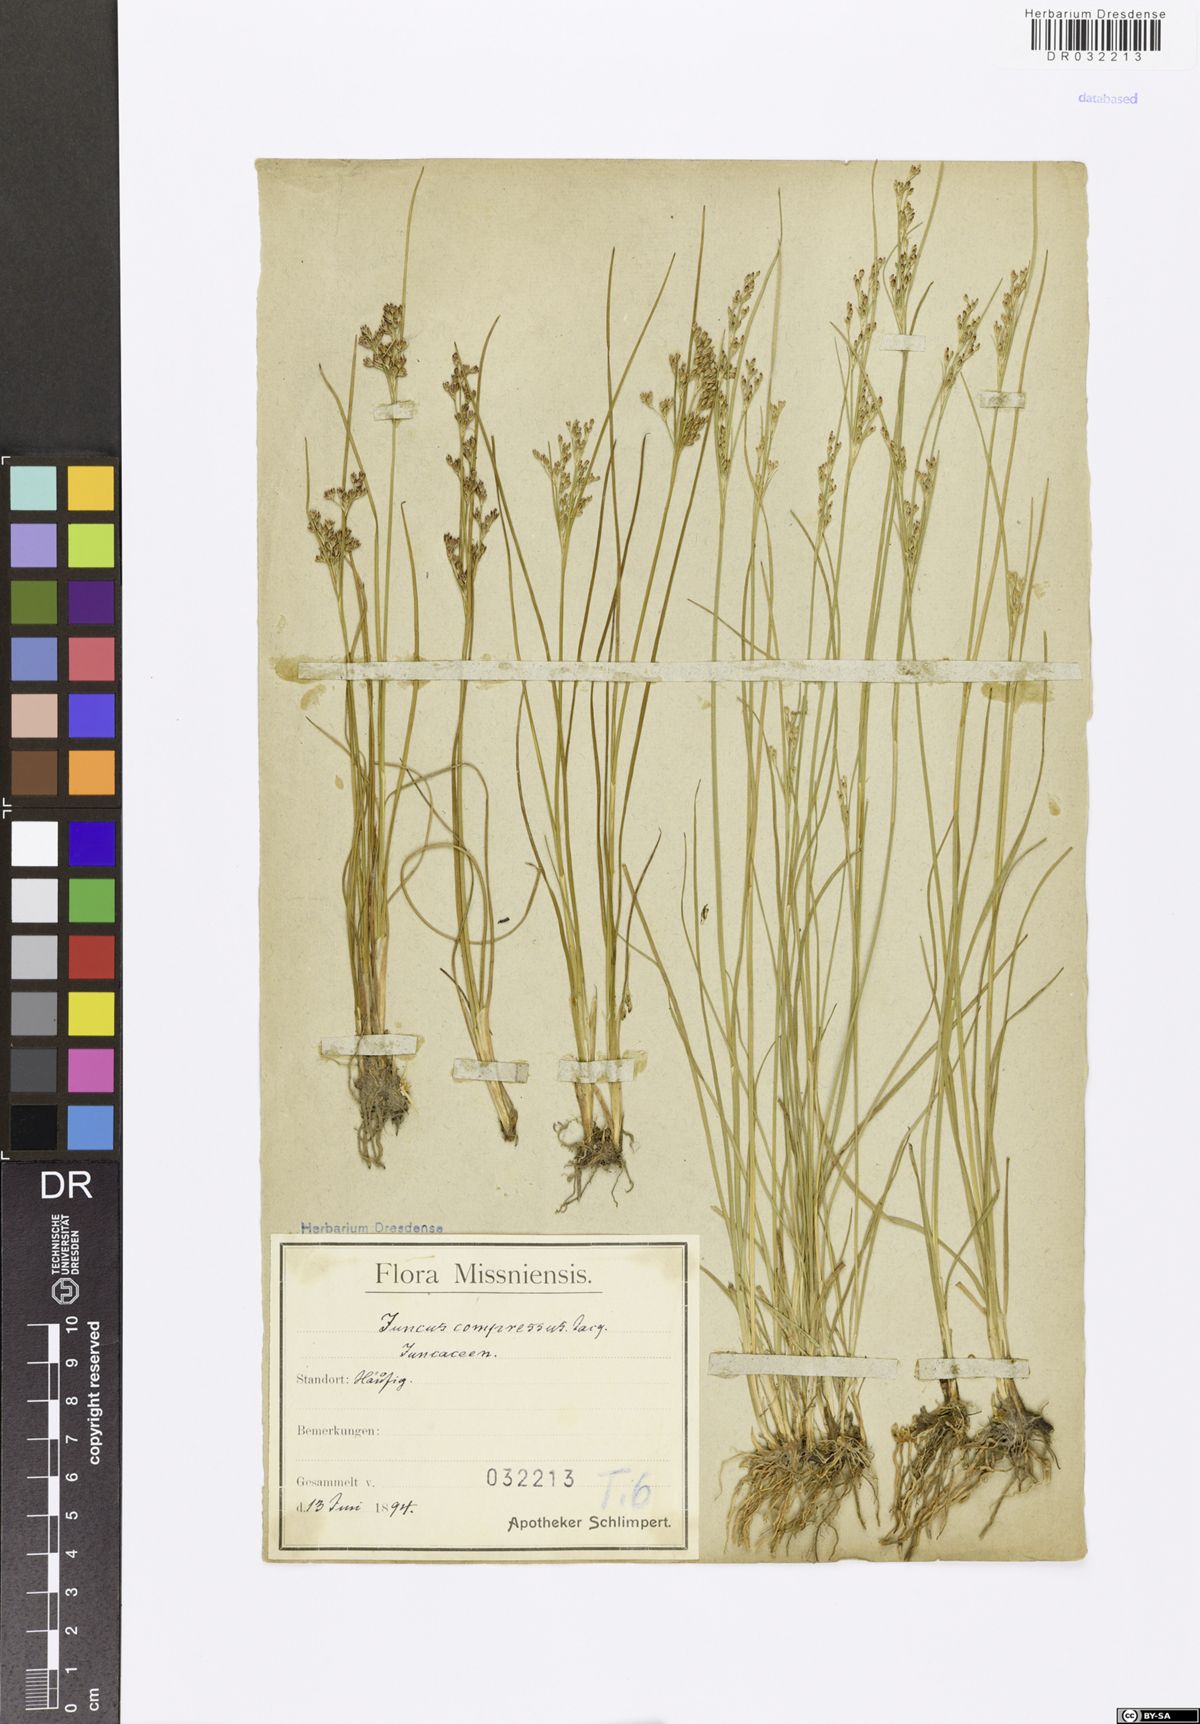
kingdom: Plantae
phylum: Tracheophyta
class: Liliopsida
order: Poales
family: Juncaceae
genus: Juncus
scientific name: Juncus compressus
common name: Round-fruited rush
